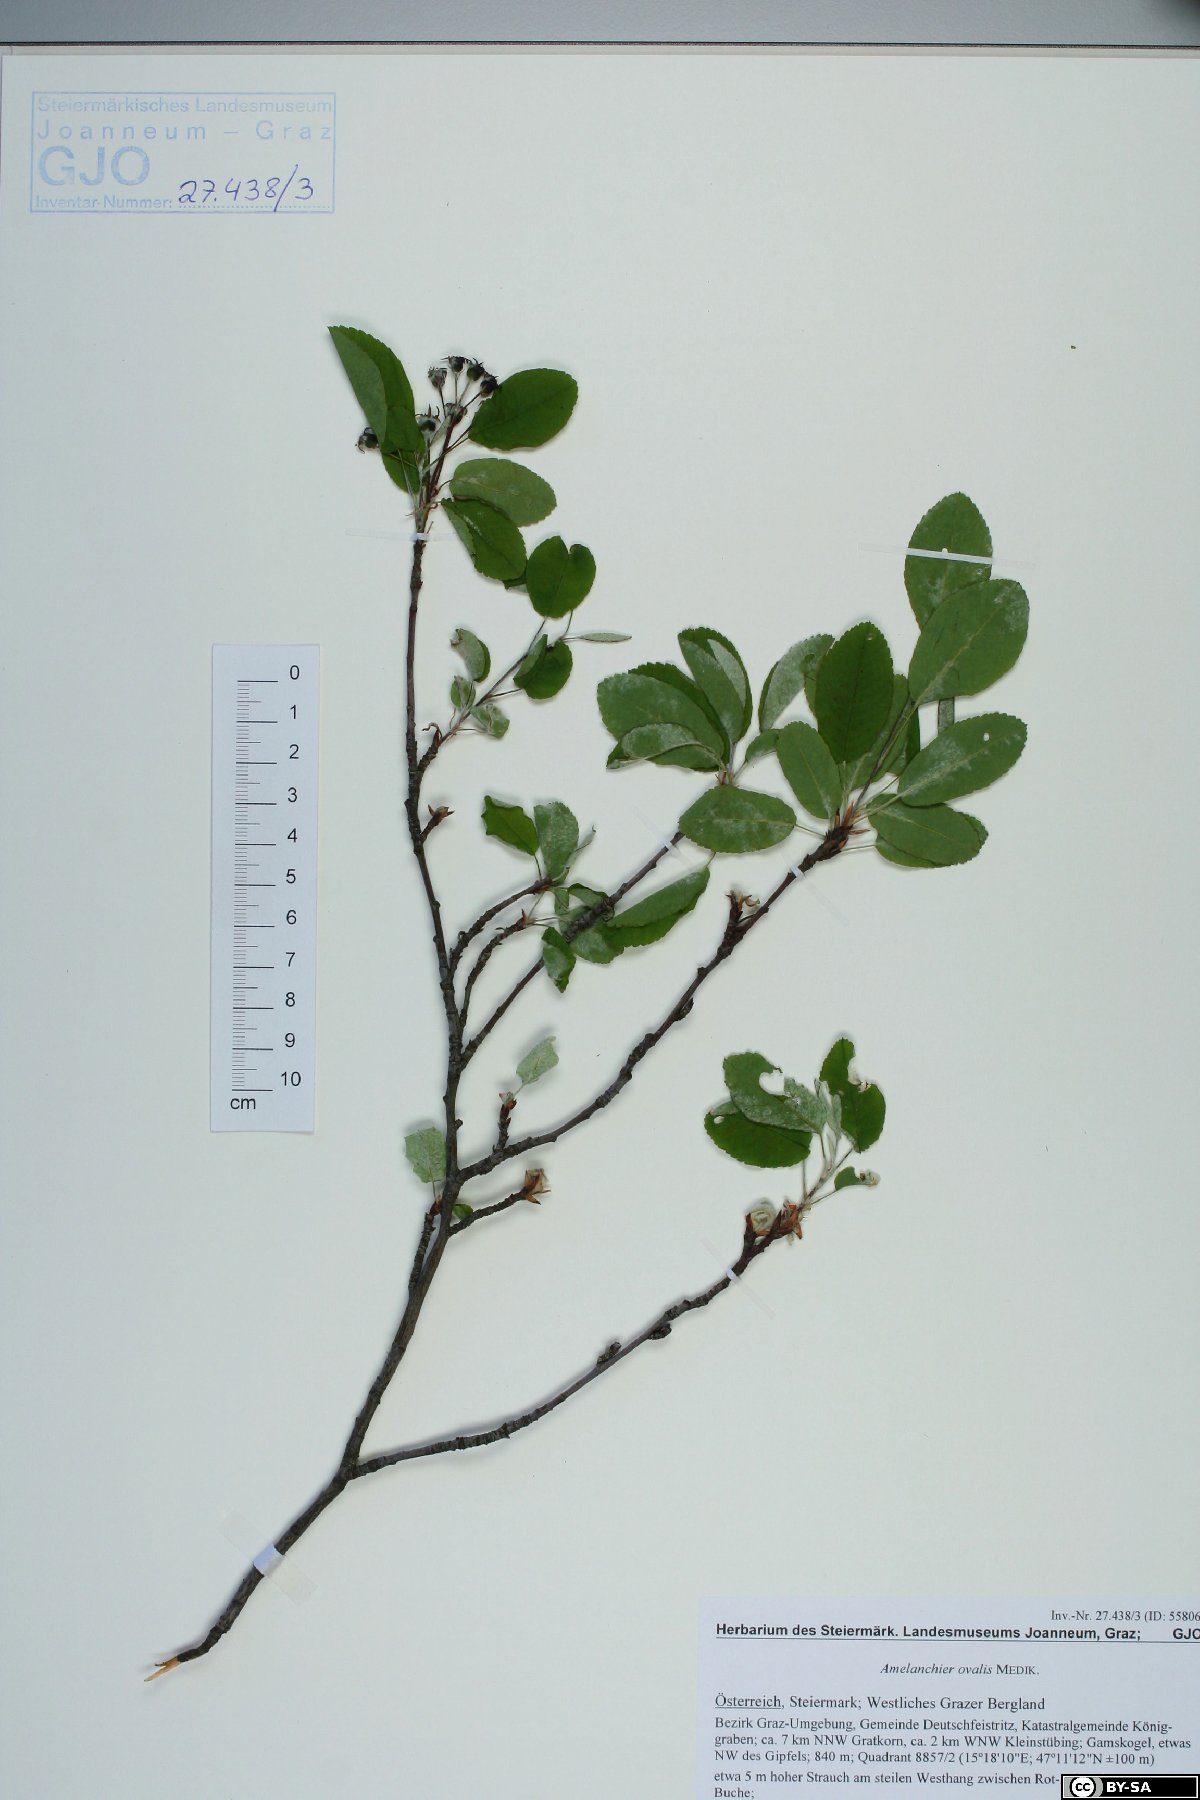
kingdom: Plantae
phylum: Tracheophyta
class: Magnoliopsida
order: Rosales
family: Rosaceae
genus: Amelanchier
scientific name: Amelanchier ovalis
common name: Serviceberry
